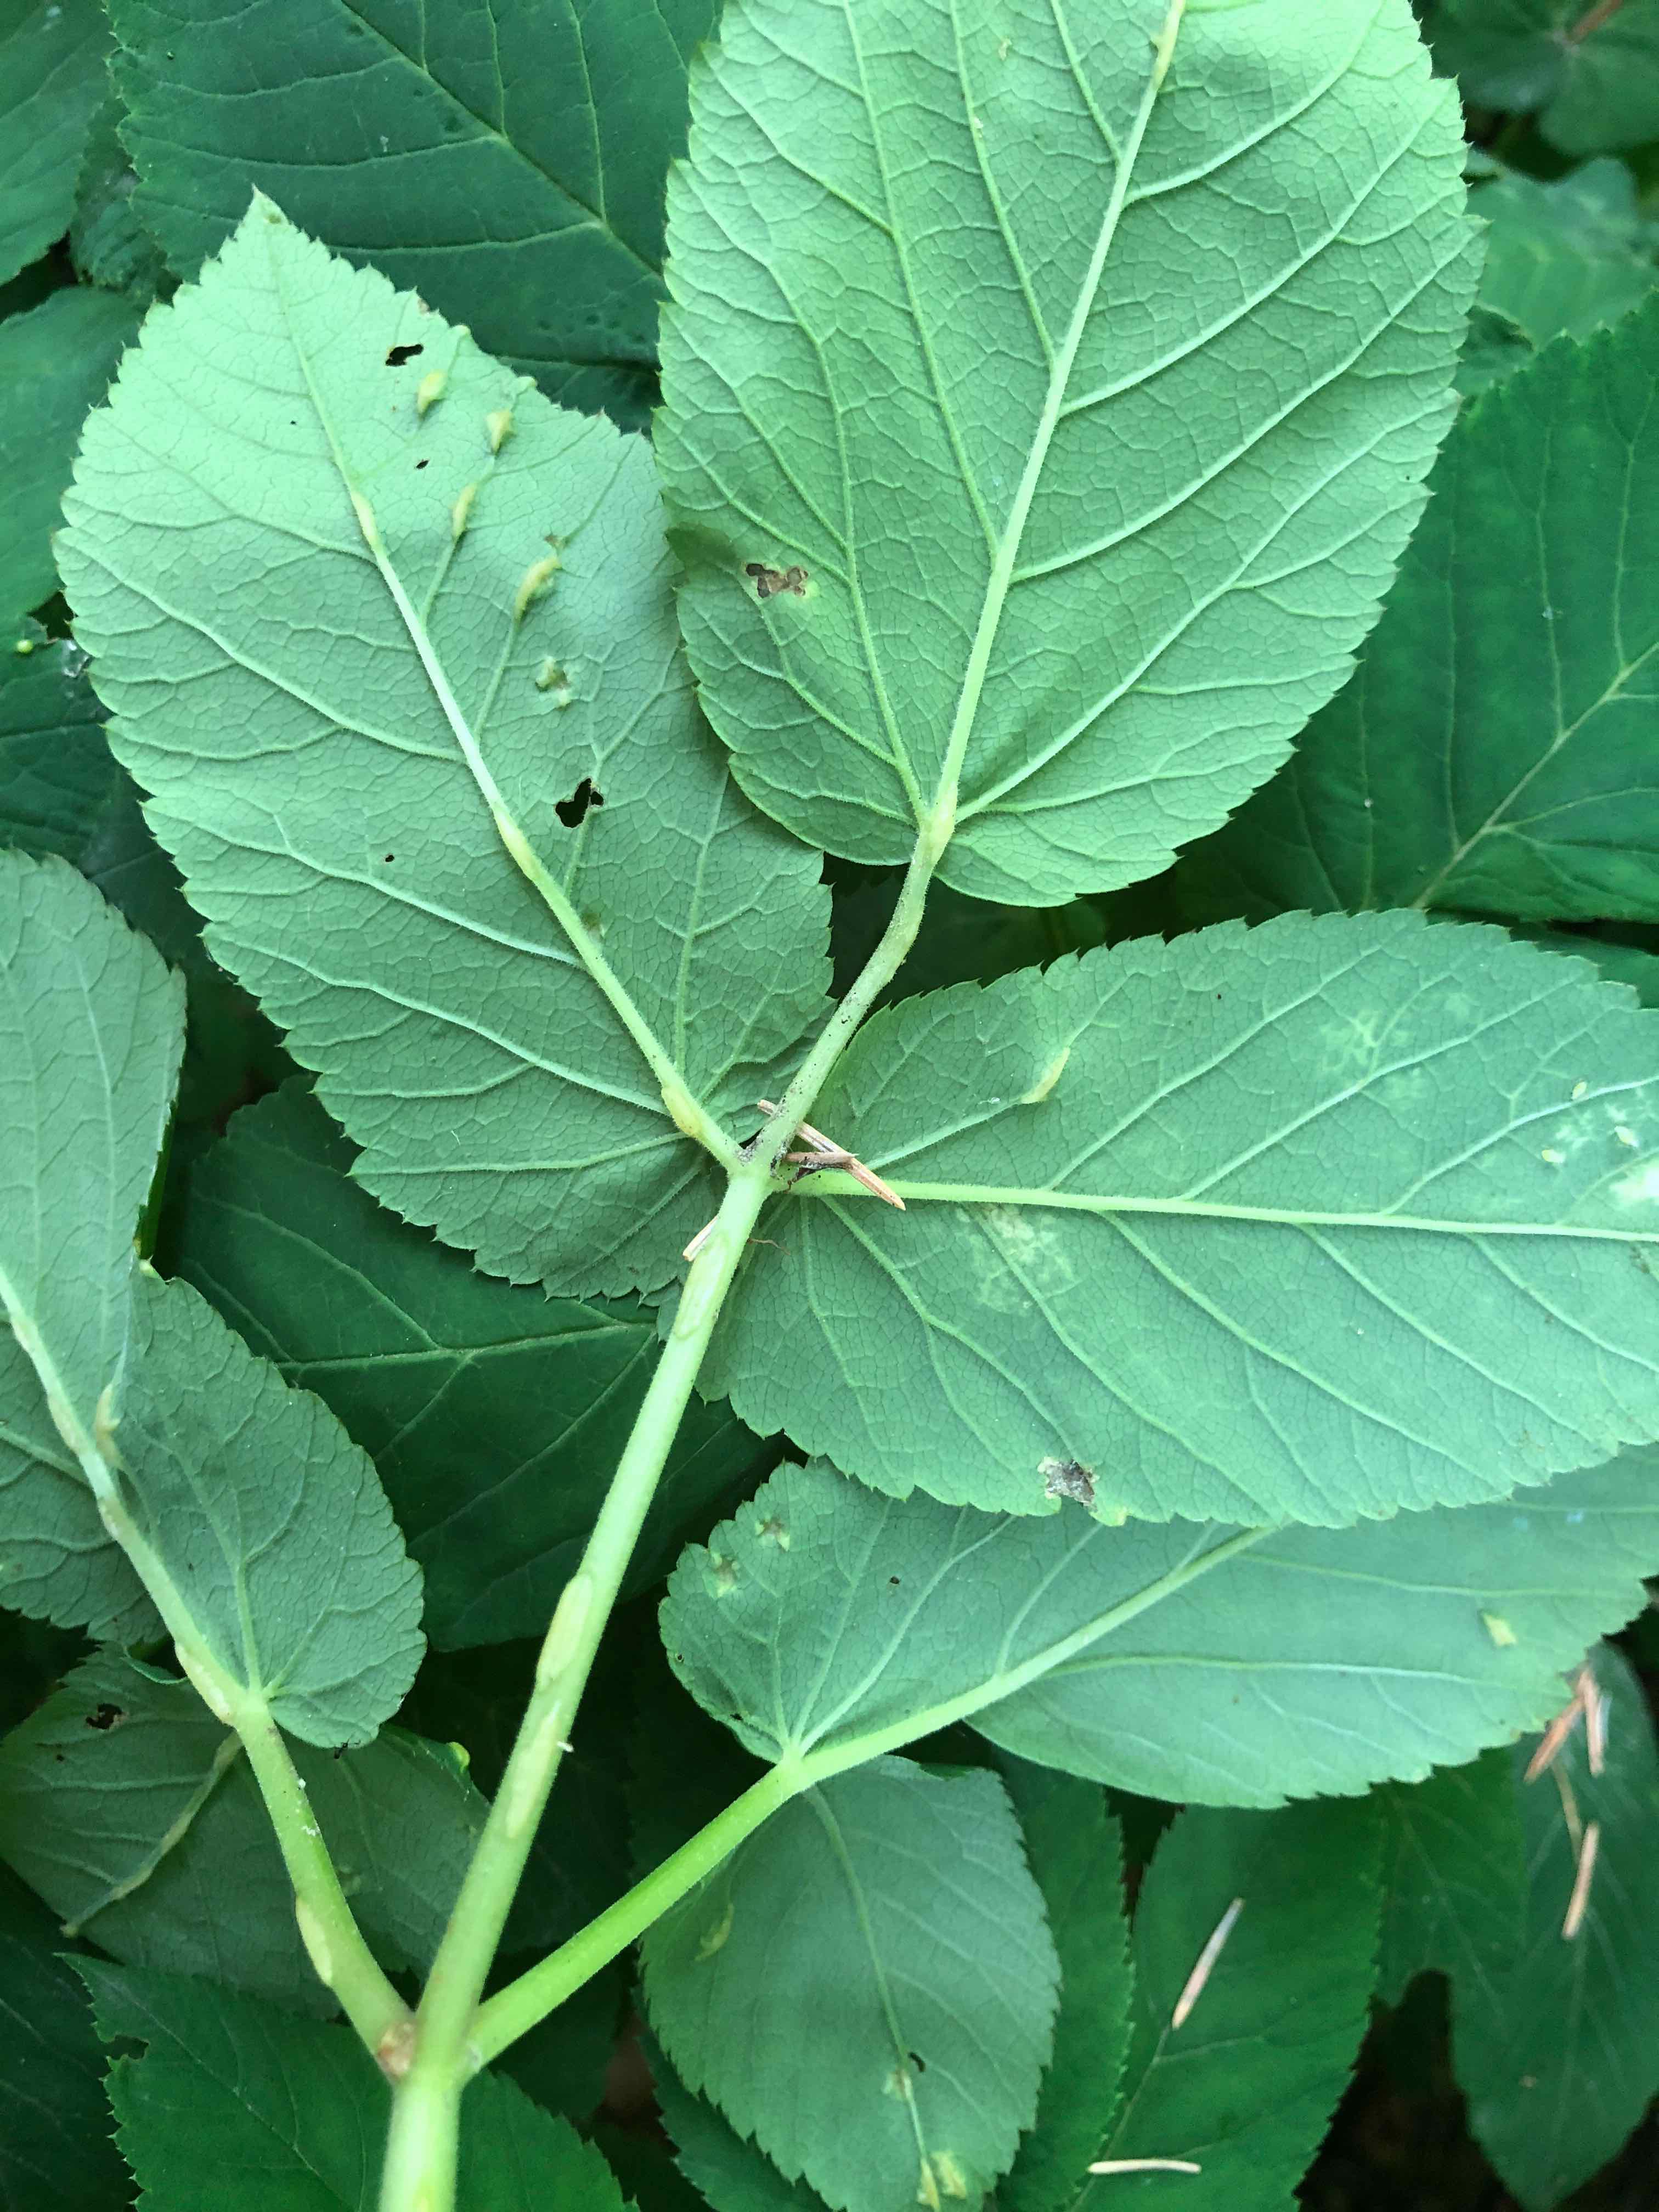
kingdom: Fungi
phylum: Ascomycota
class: Taphrinomycetes
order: Taphrinales
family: Taphrinaceae
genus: Protomyces
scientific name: Protomyces macrosporus
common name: skvalderkål-vablesæk
